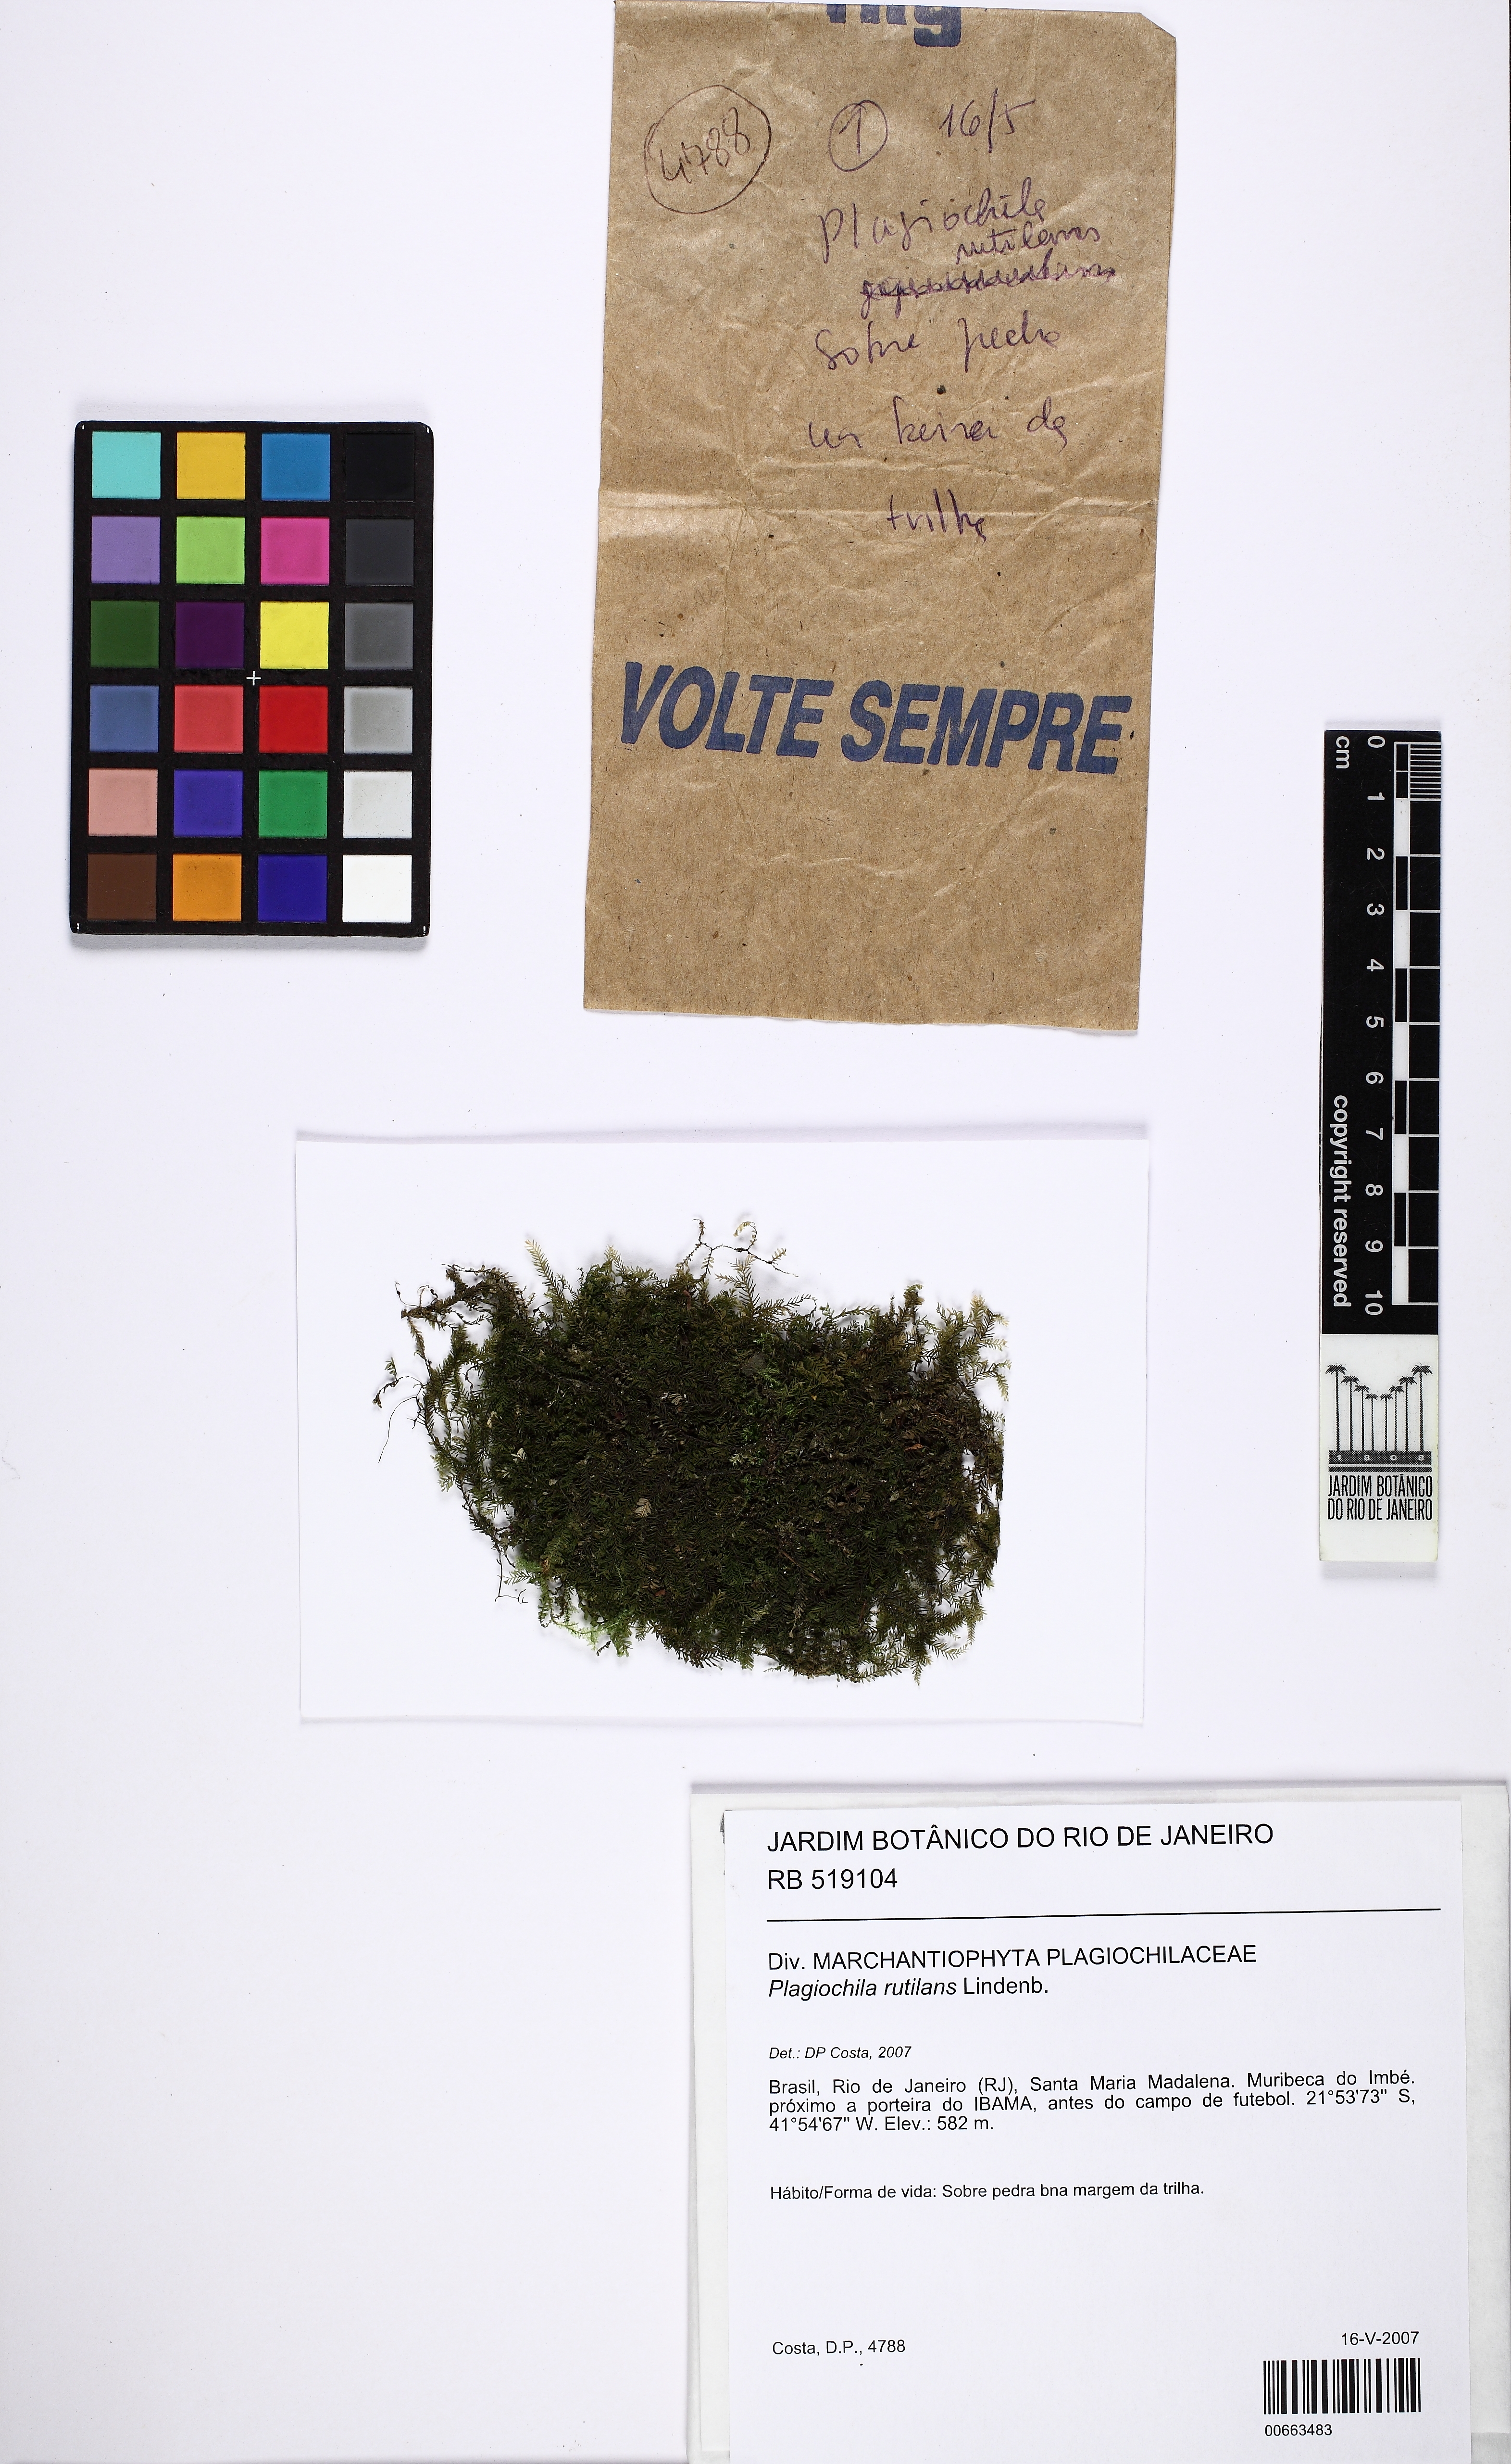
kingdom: Plantae
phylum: Marchantiophyta
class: Jungermanniopsida
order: Jungermanniales
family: Plagiochilaceae
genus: Plagiochila
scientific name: Plagiochila rutilans
